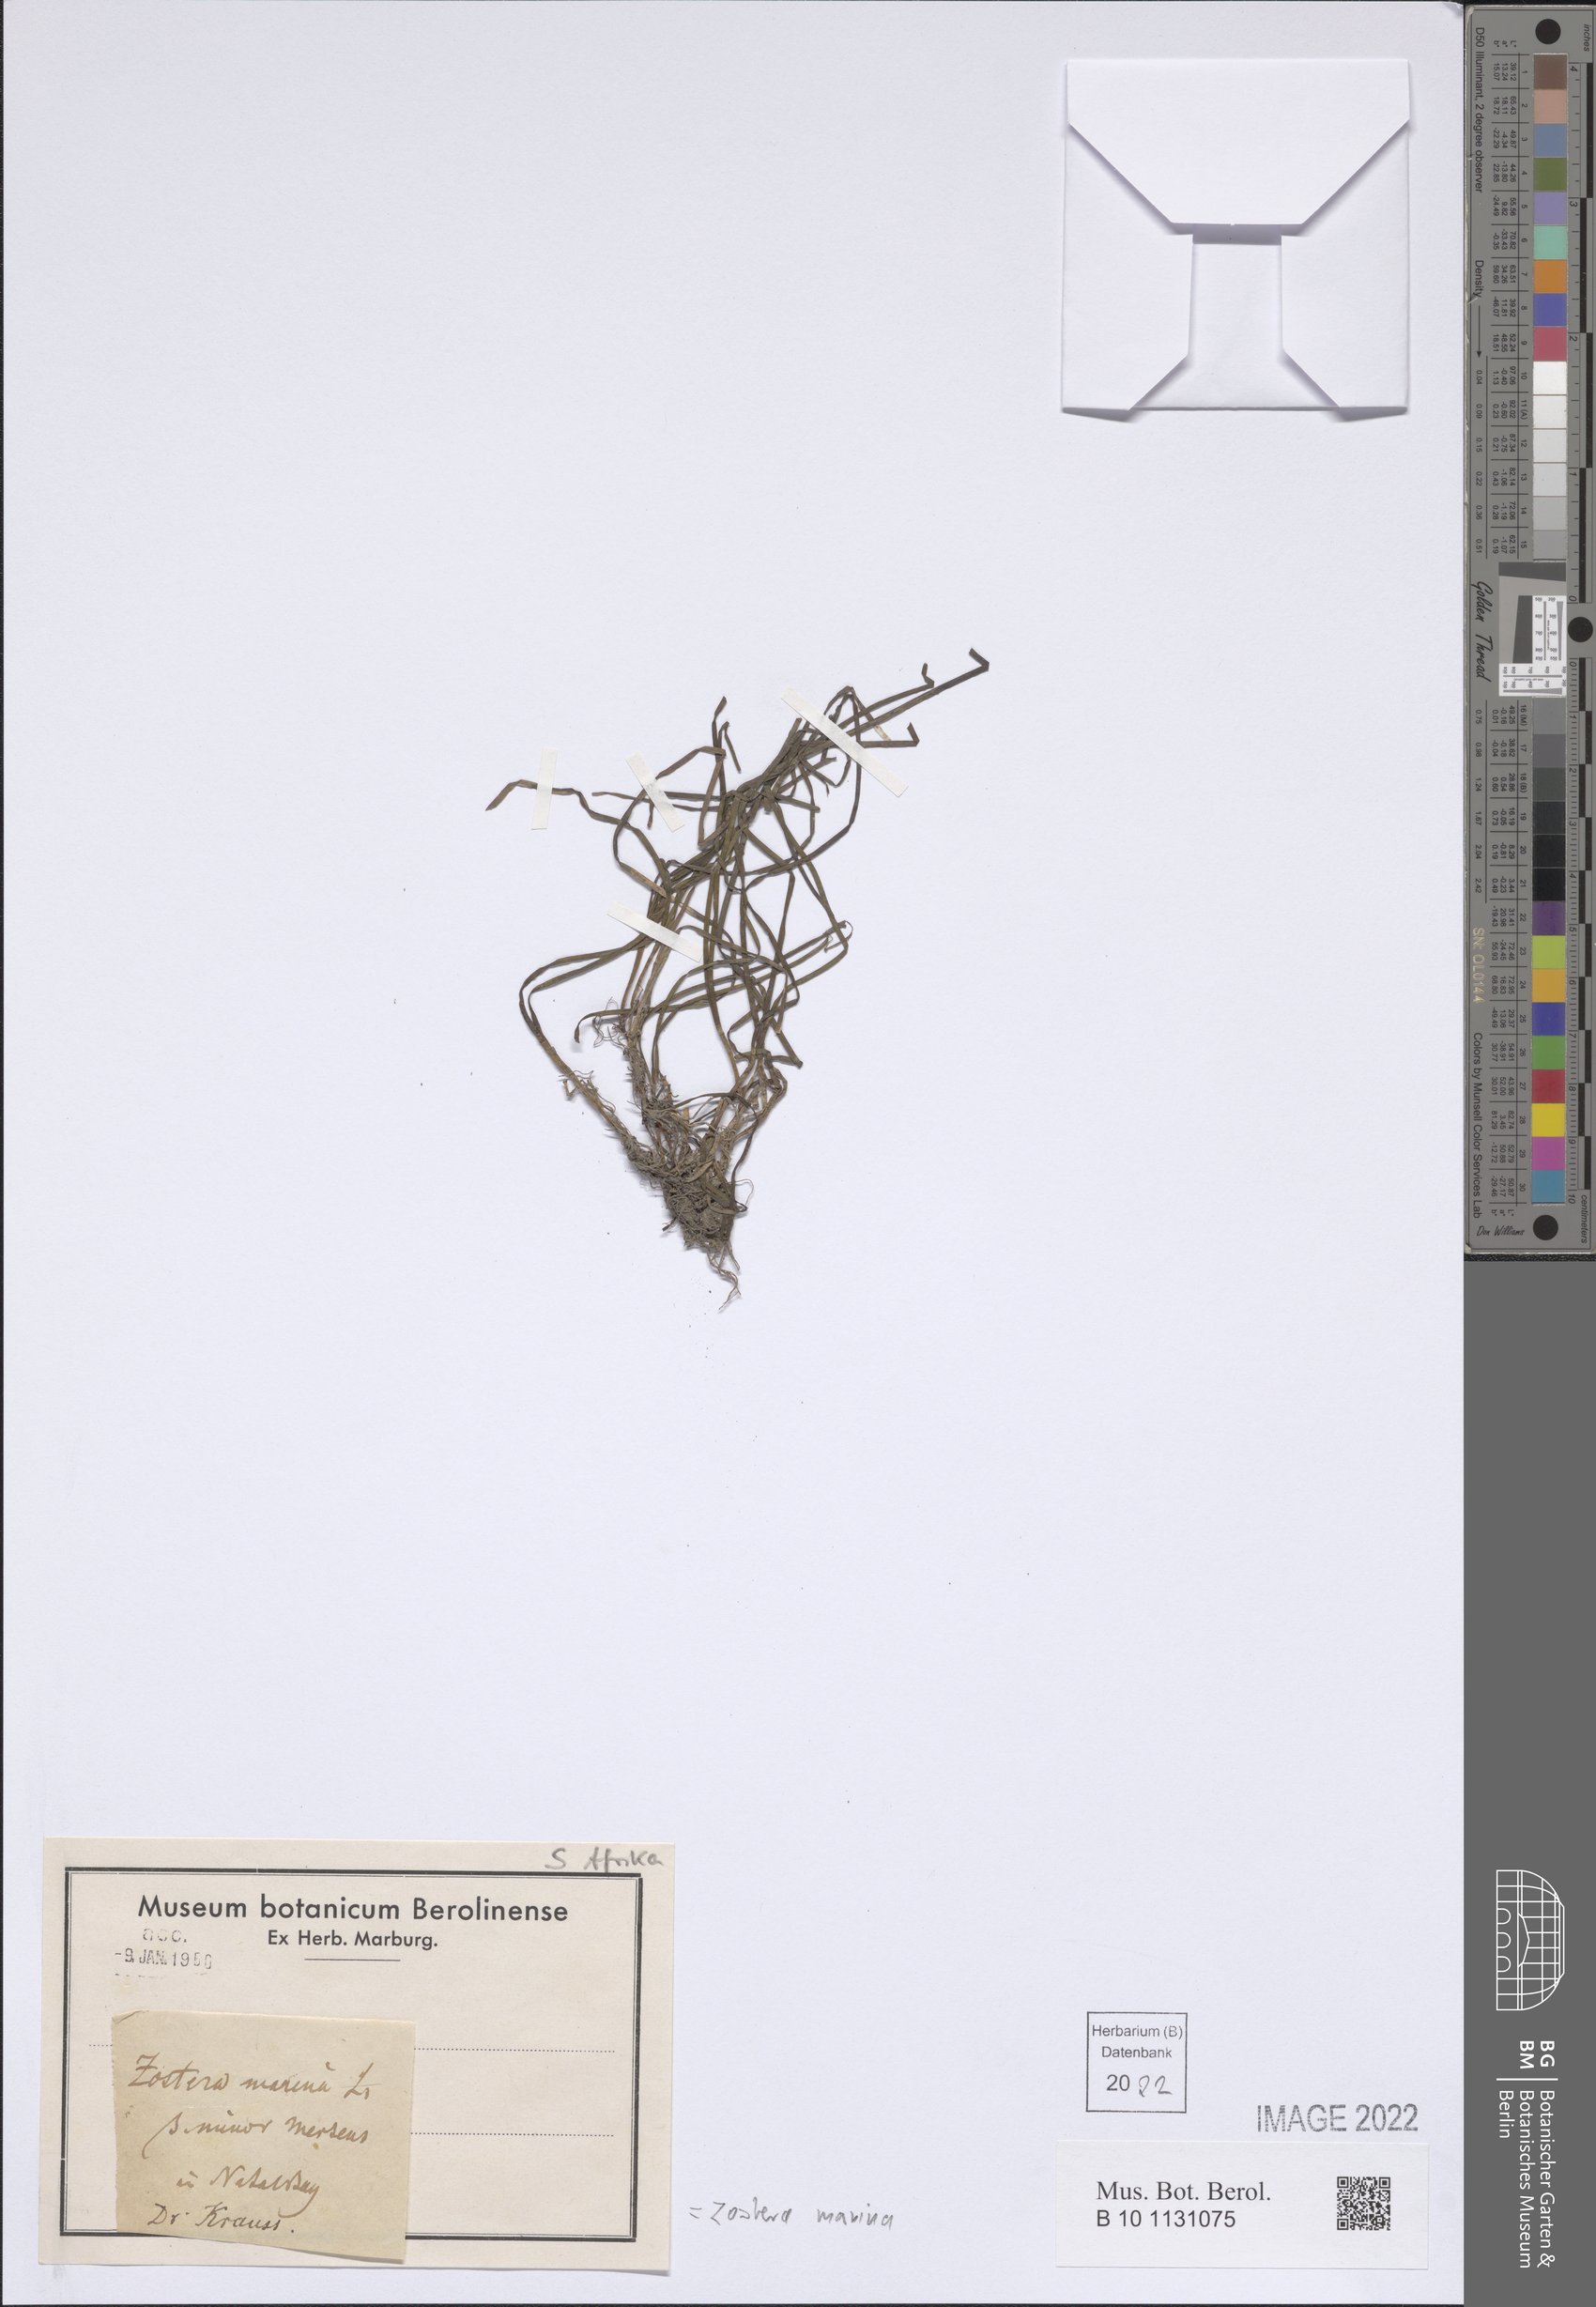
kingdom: Plantae
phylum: Tracheophyta
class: Liliopsida
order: Alismatales
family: Zosteraceae
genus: Zostera
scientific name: Zostera marina
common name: Eelgrass
